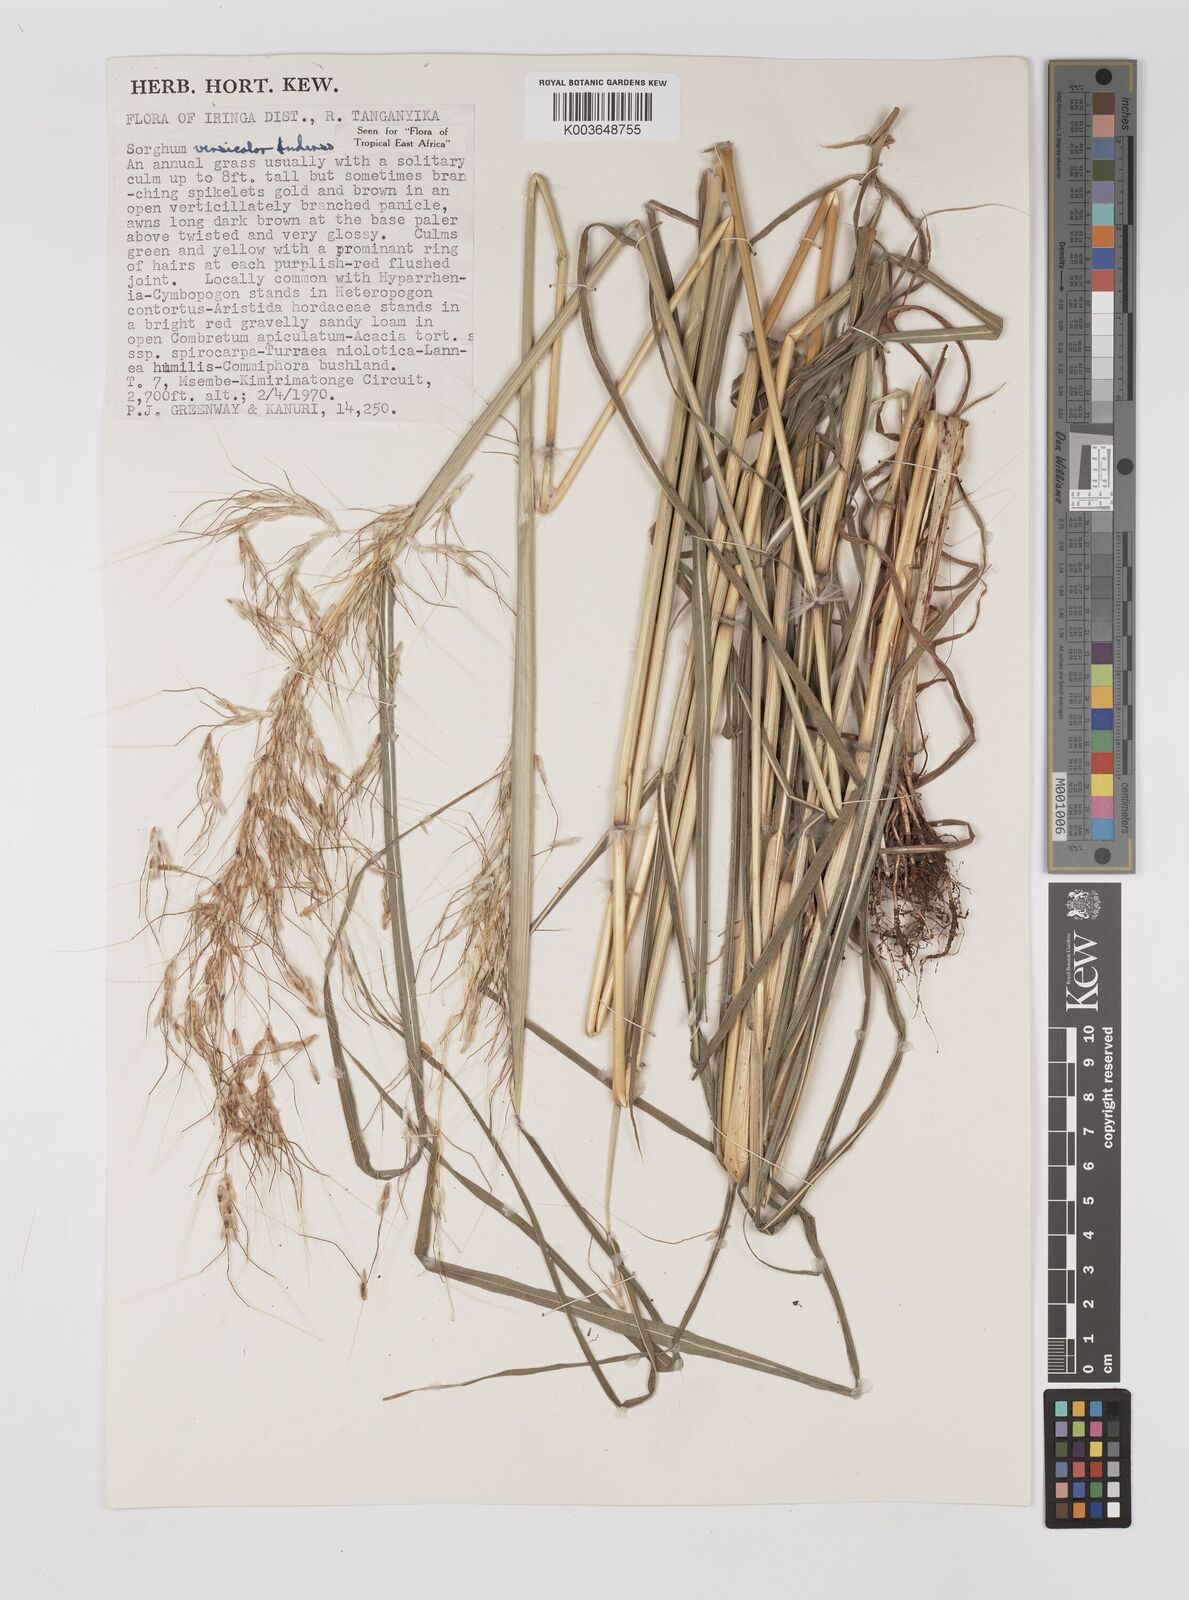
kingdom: Plantae
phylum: Tracheophyta
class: Liliopsida
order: Poales
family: Poaceae
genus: Sarga
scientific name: Sarga versicolor
